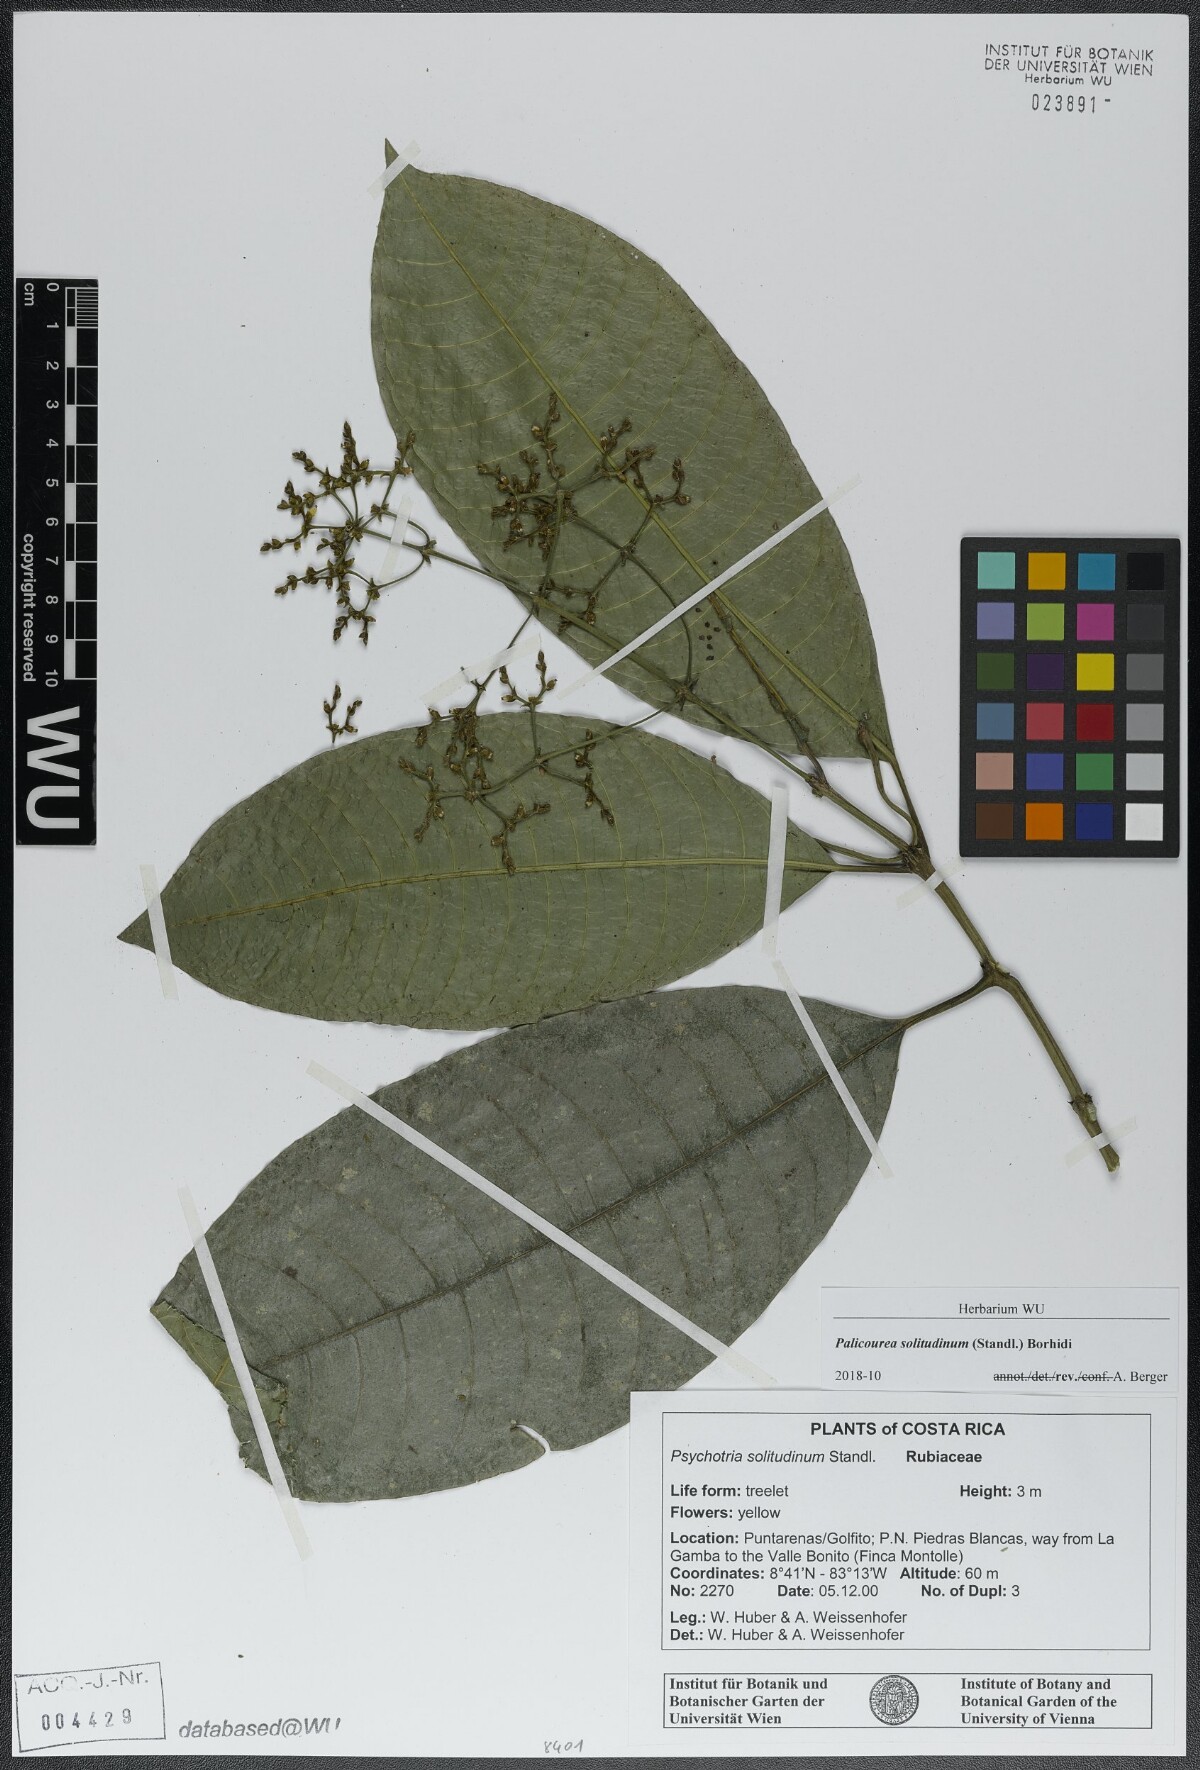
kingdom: Plantae
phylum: Tracheophyta
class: Magnoliopsida
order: Gentianales
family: Rubiaceae
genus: Palicourea
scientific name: Palicourea solitudinum
